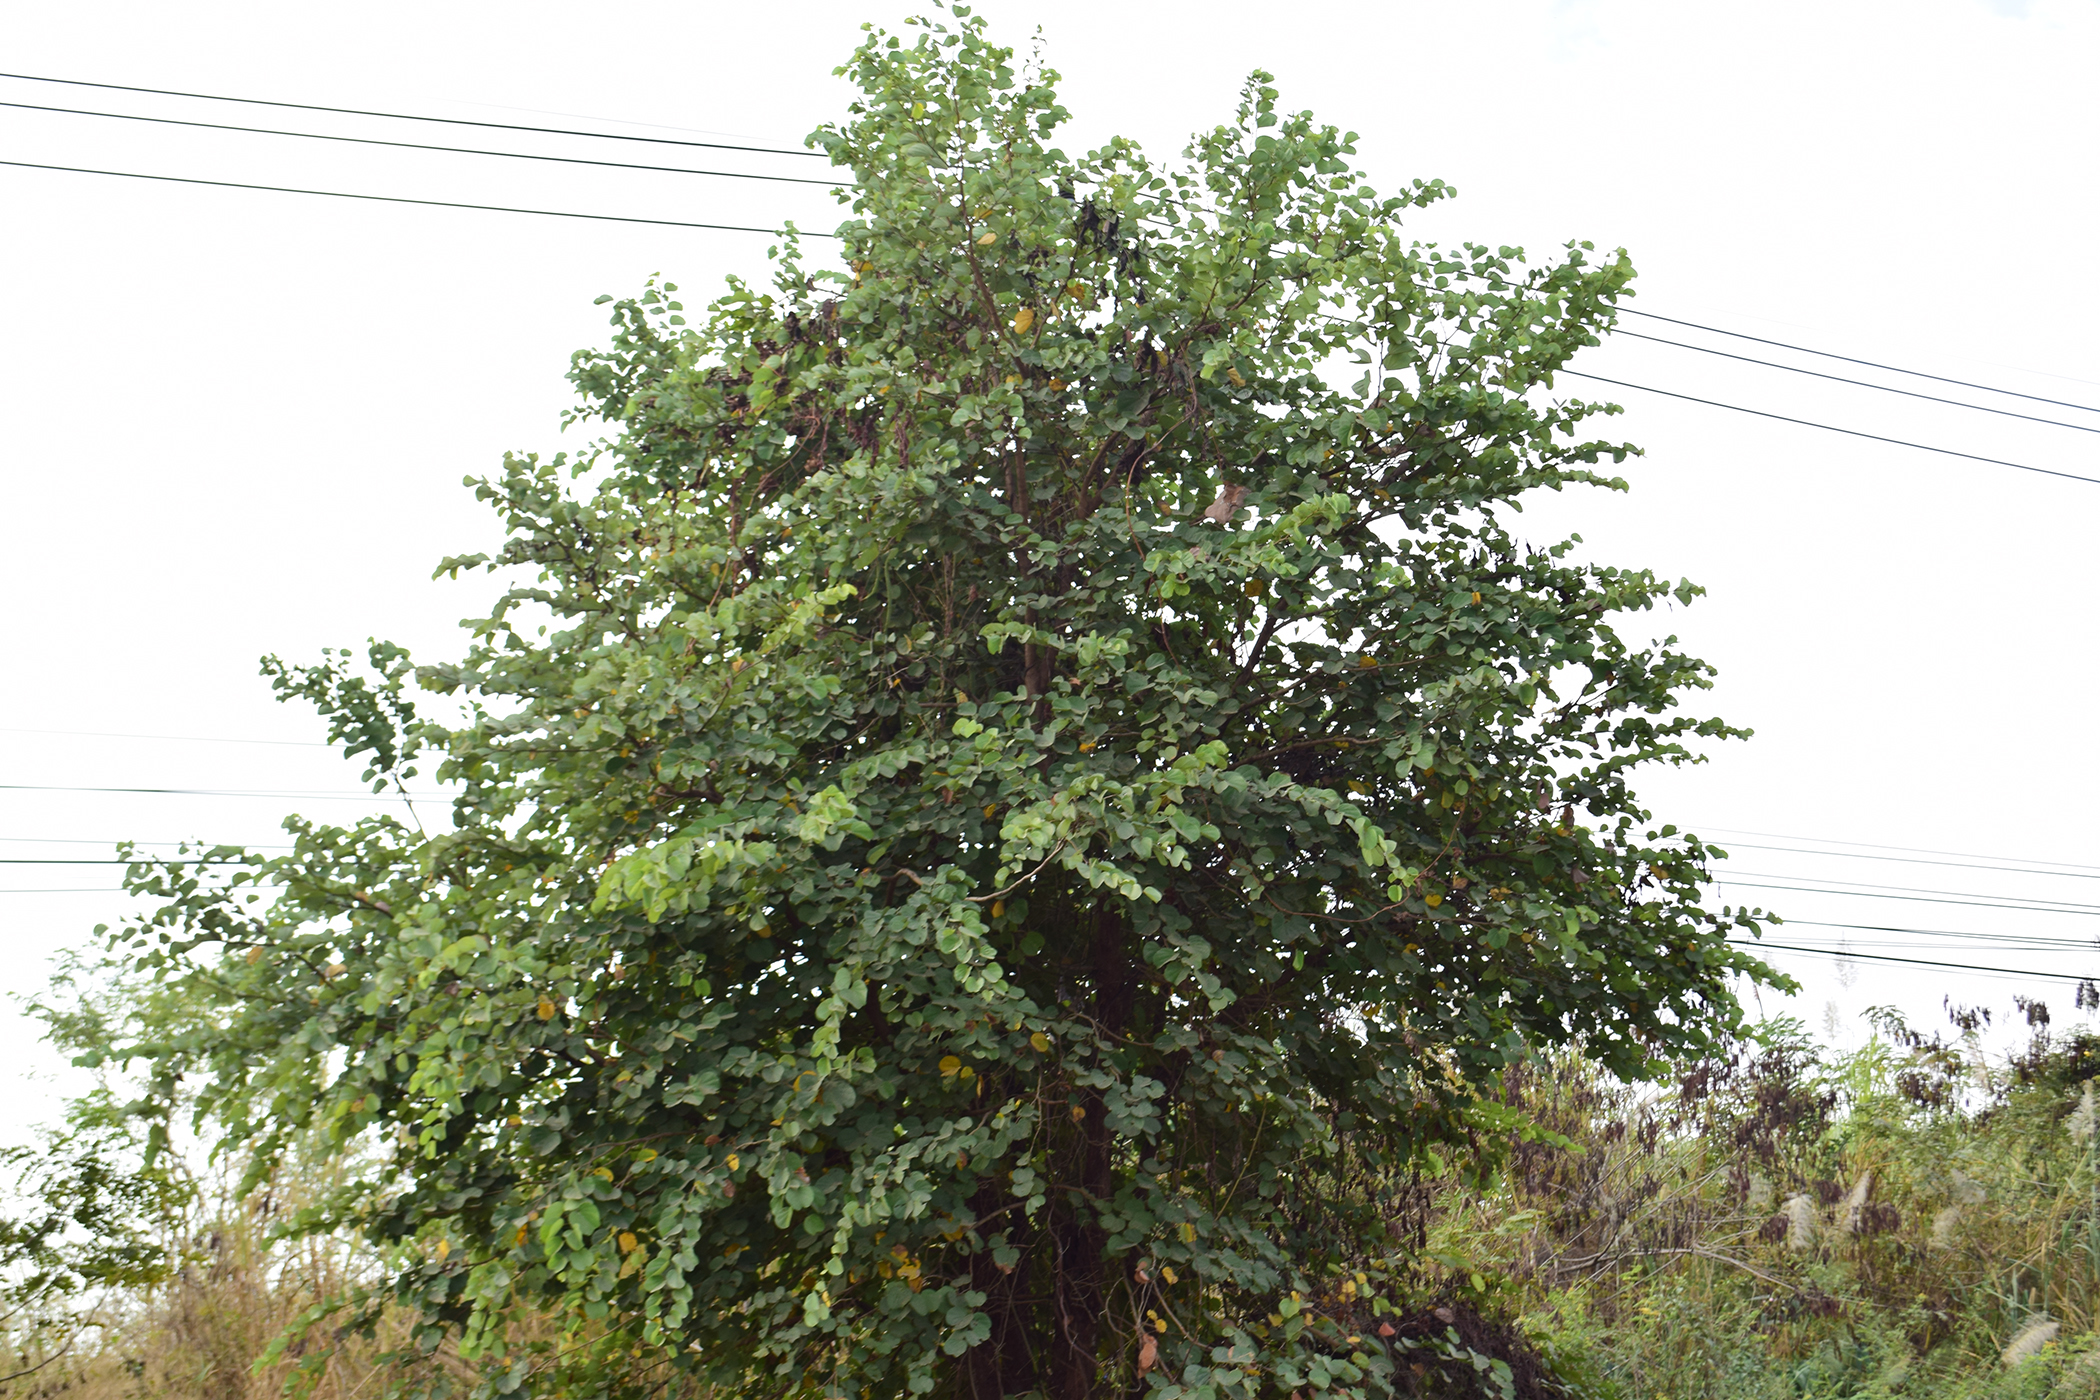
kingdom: Plantae
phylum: Tracheophyta
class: Magnoliopsida
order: Fabales
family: Fabaceae
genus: Bauhinia
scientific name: Bauhinia
